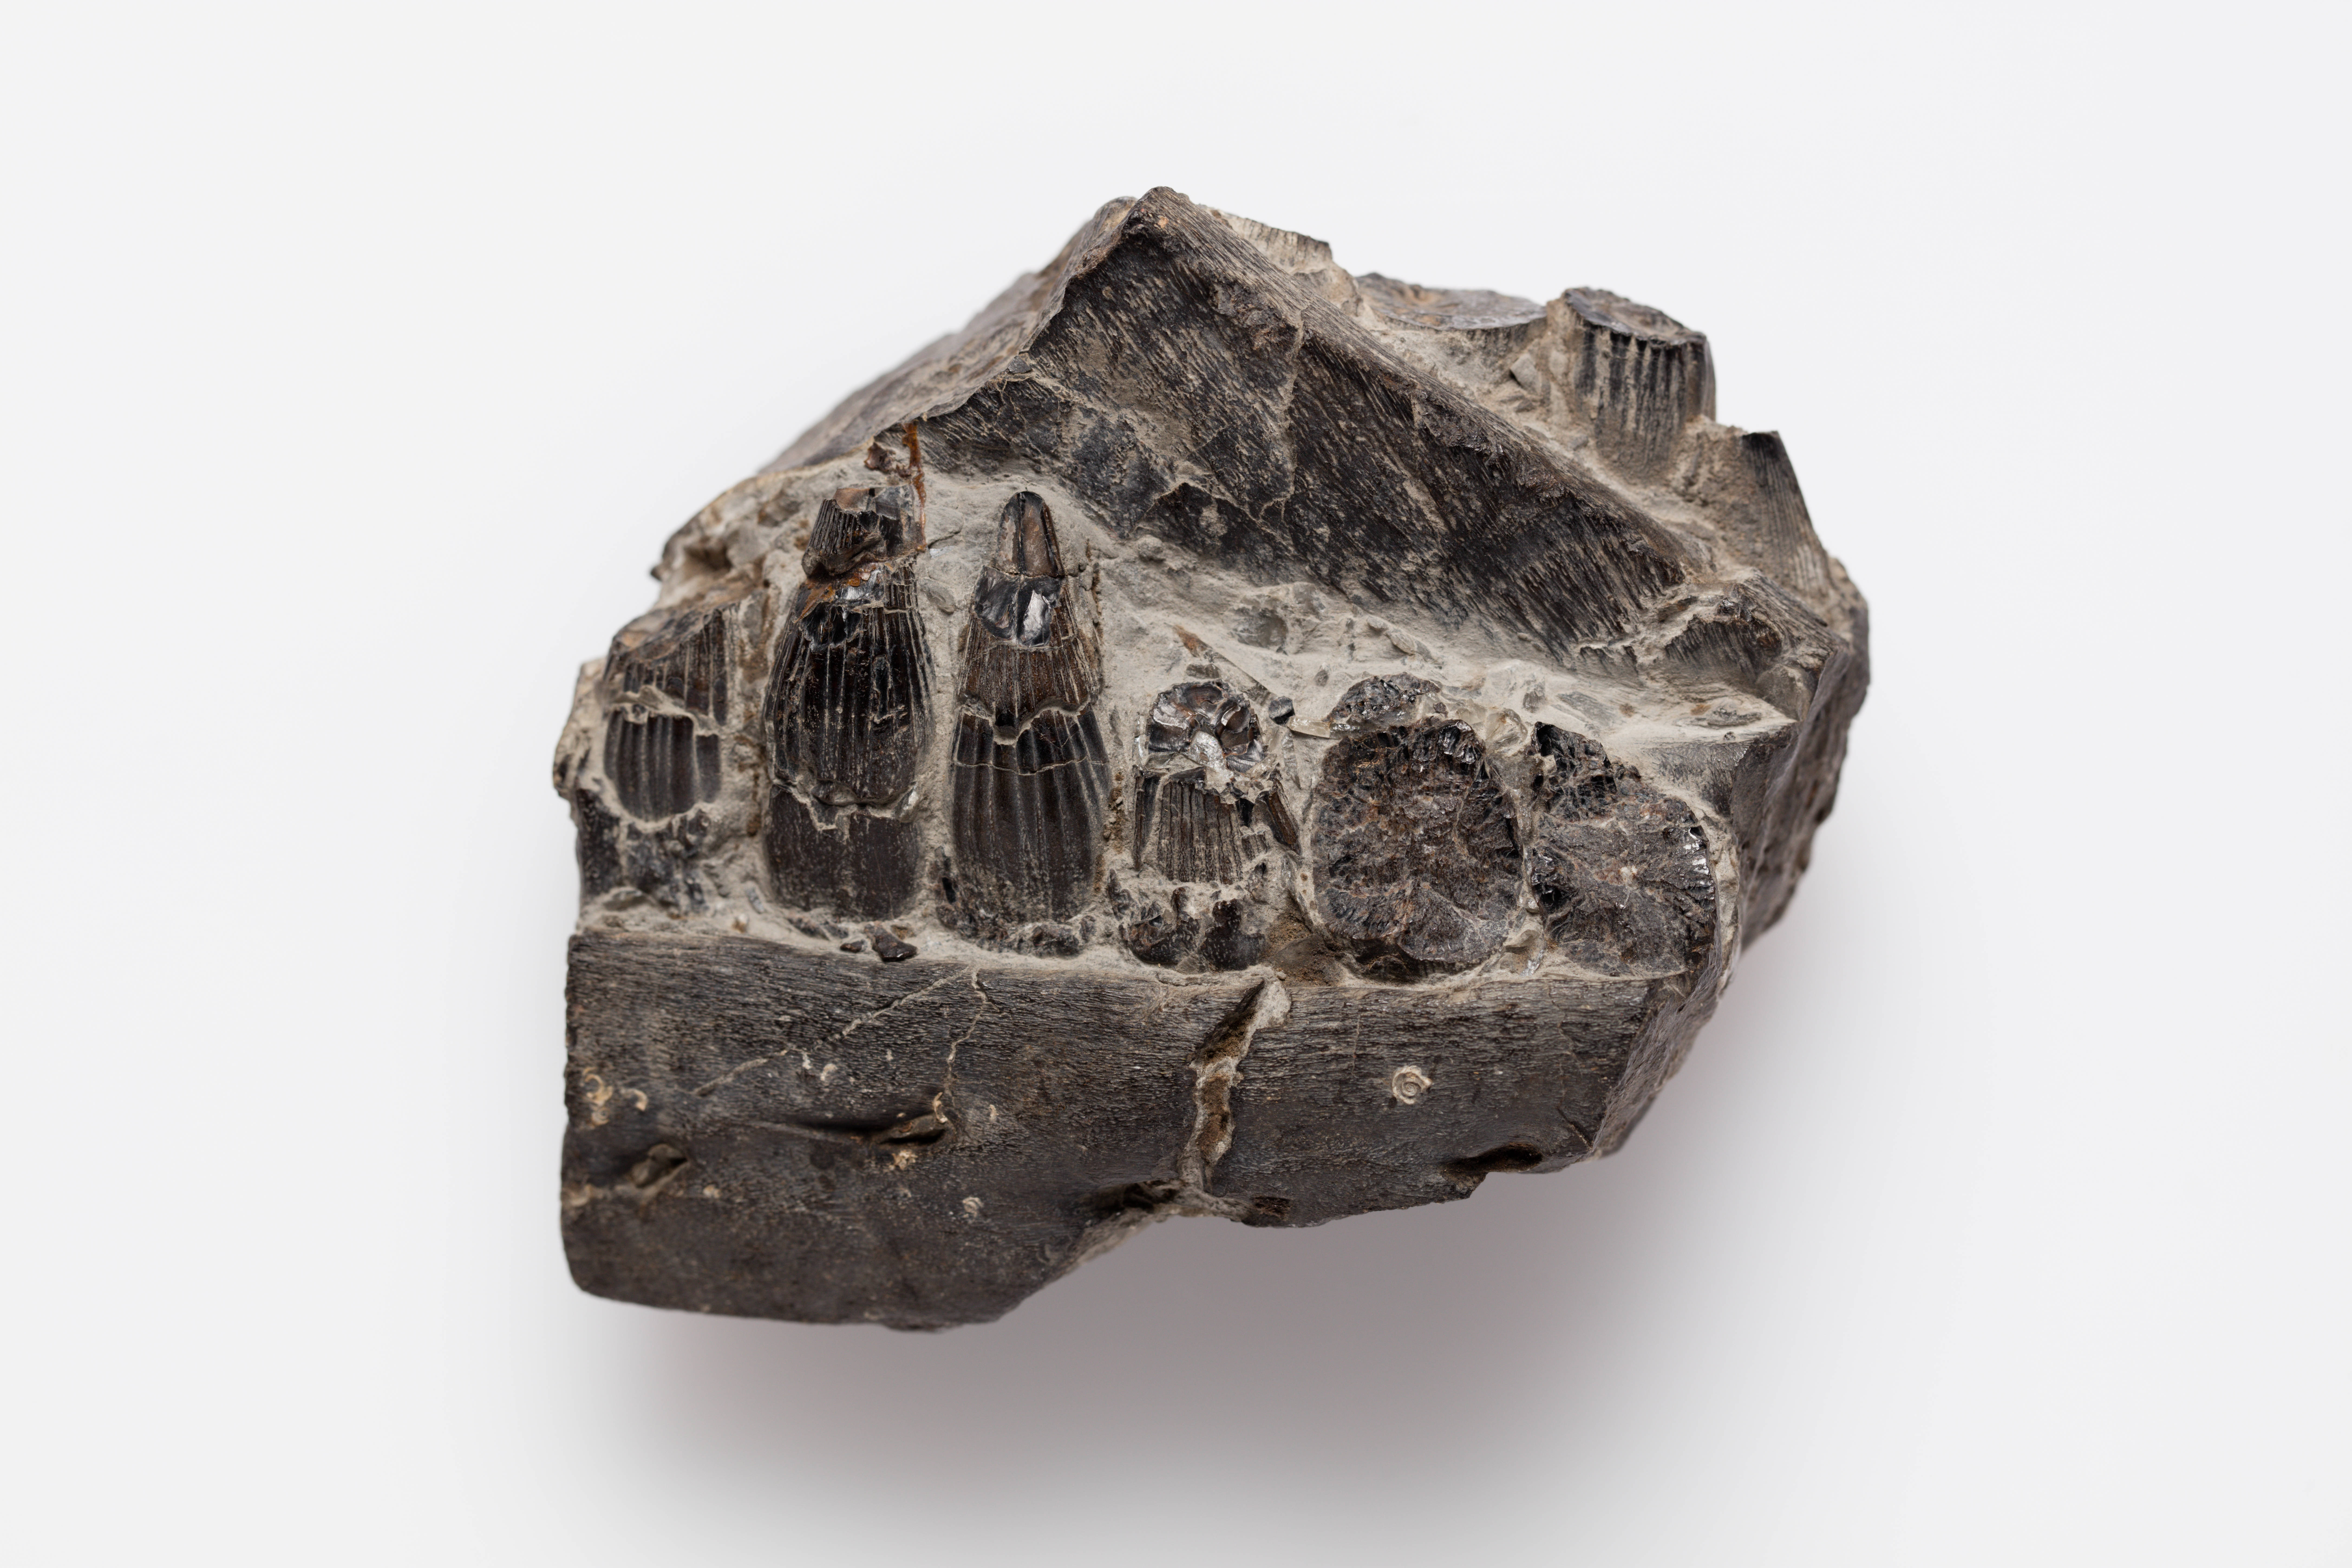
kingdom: Animalia
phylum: Chordata
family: Ichthyosauridae
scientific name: Ichthyosauridae
